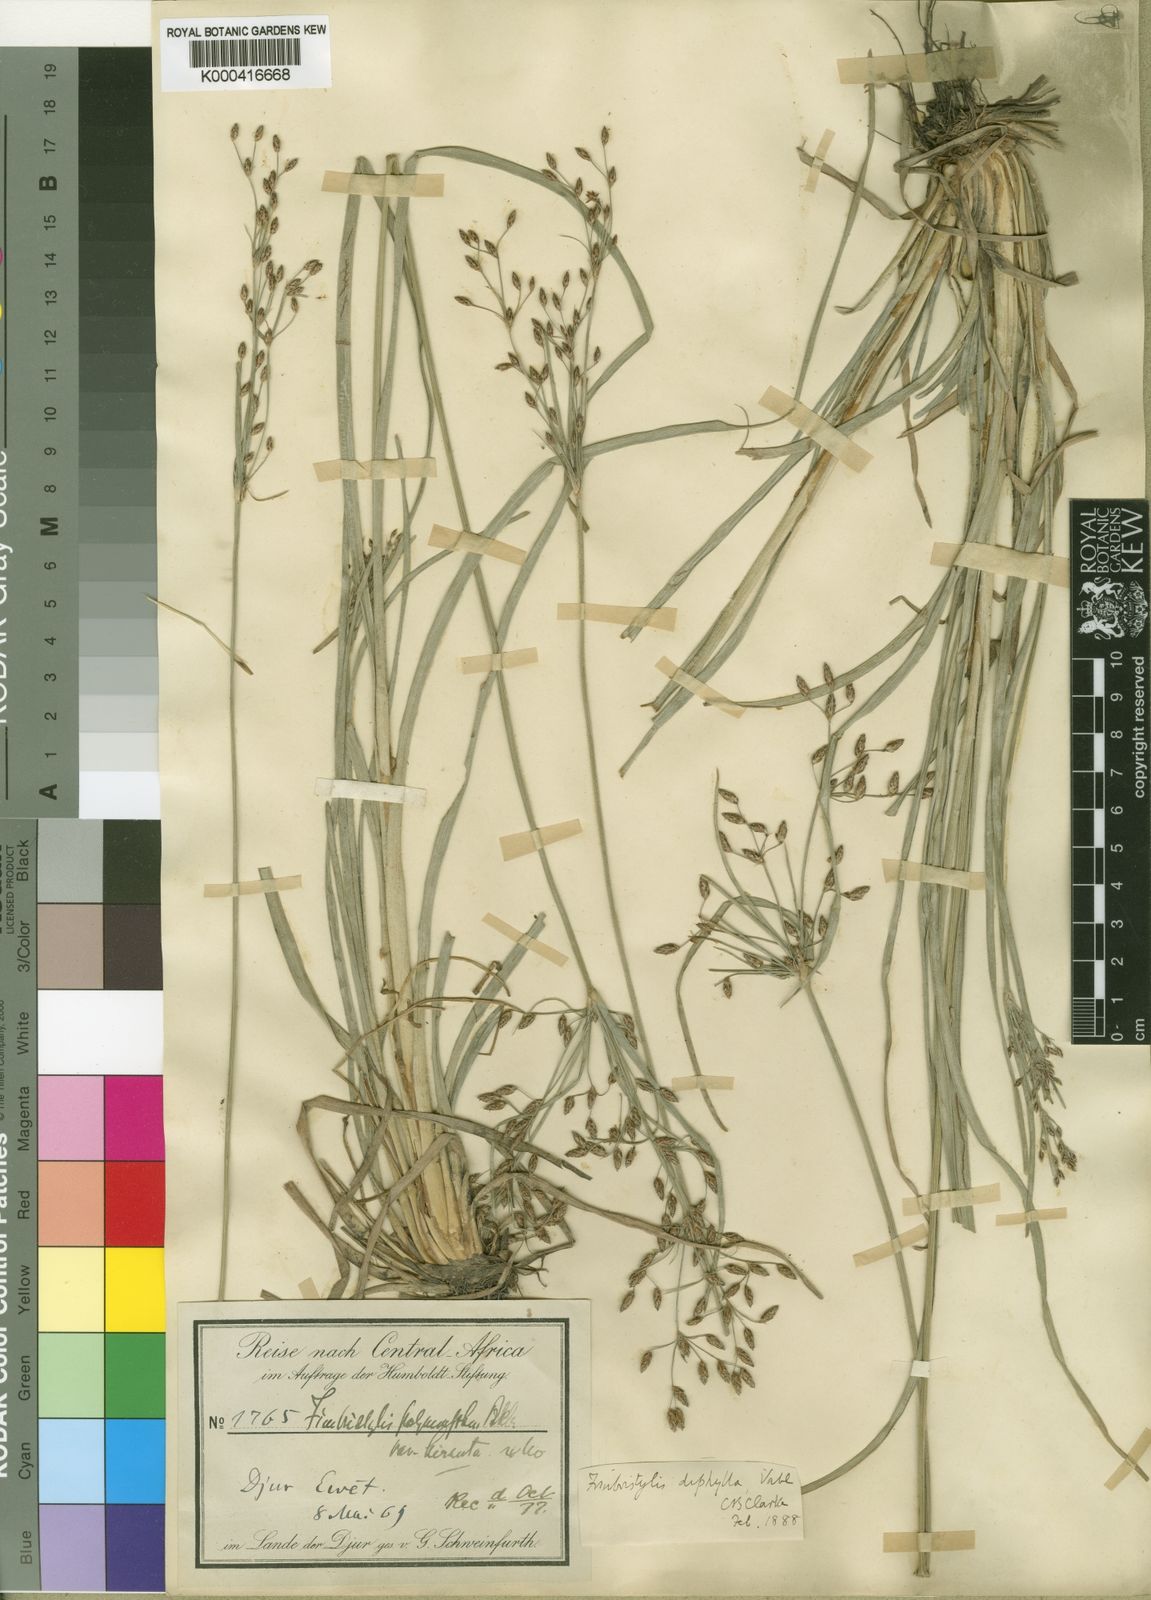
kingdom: Plantae
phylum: Tracheophyta
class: Liliopsida
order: Poales
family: Cyperaceae
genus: Fimbristylis
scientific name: Fimbristylis dichotoma
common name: Forked fimbry
